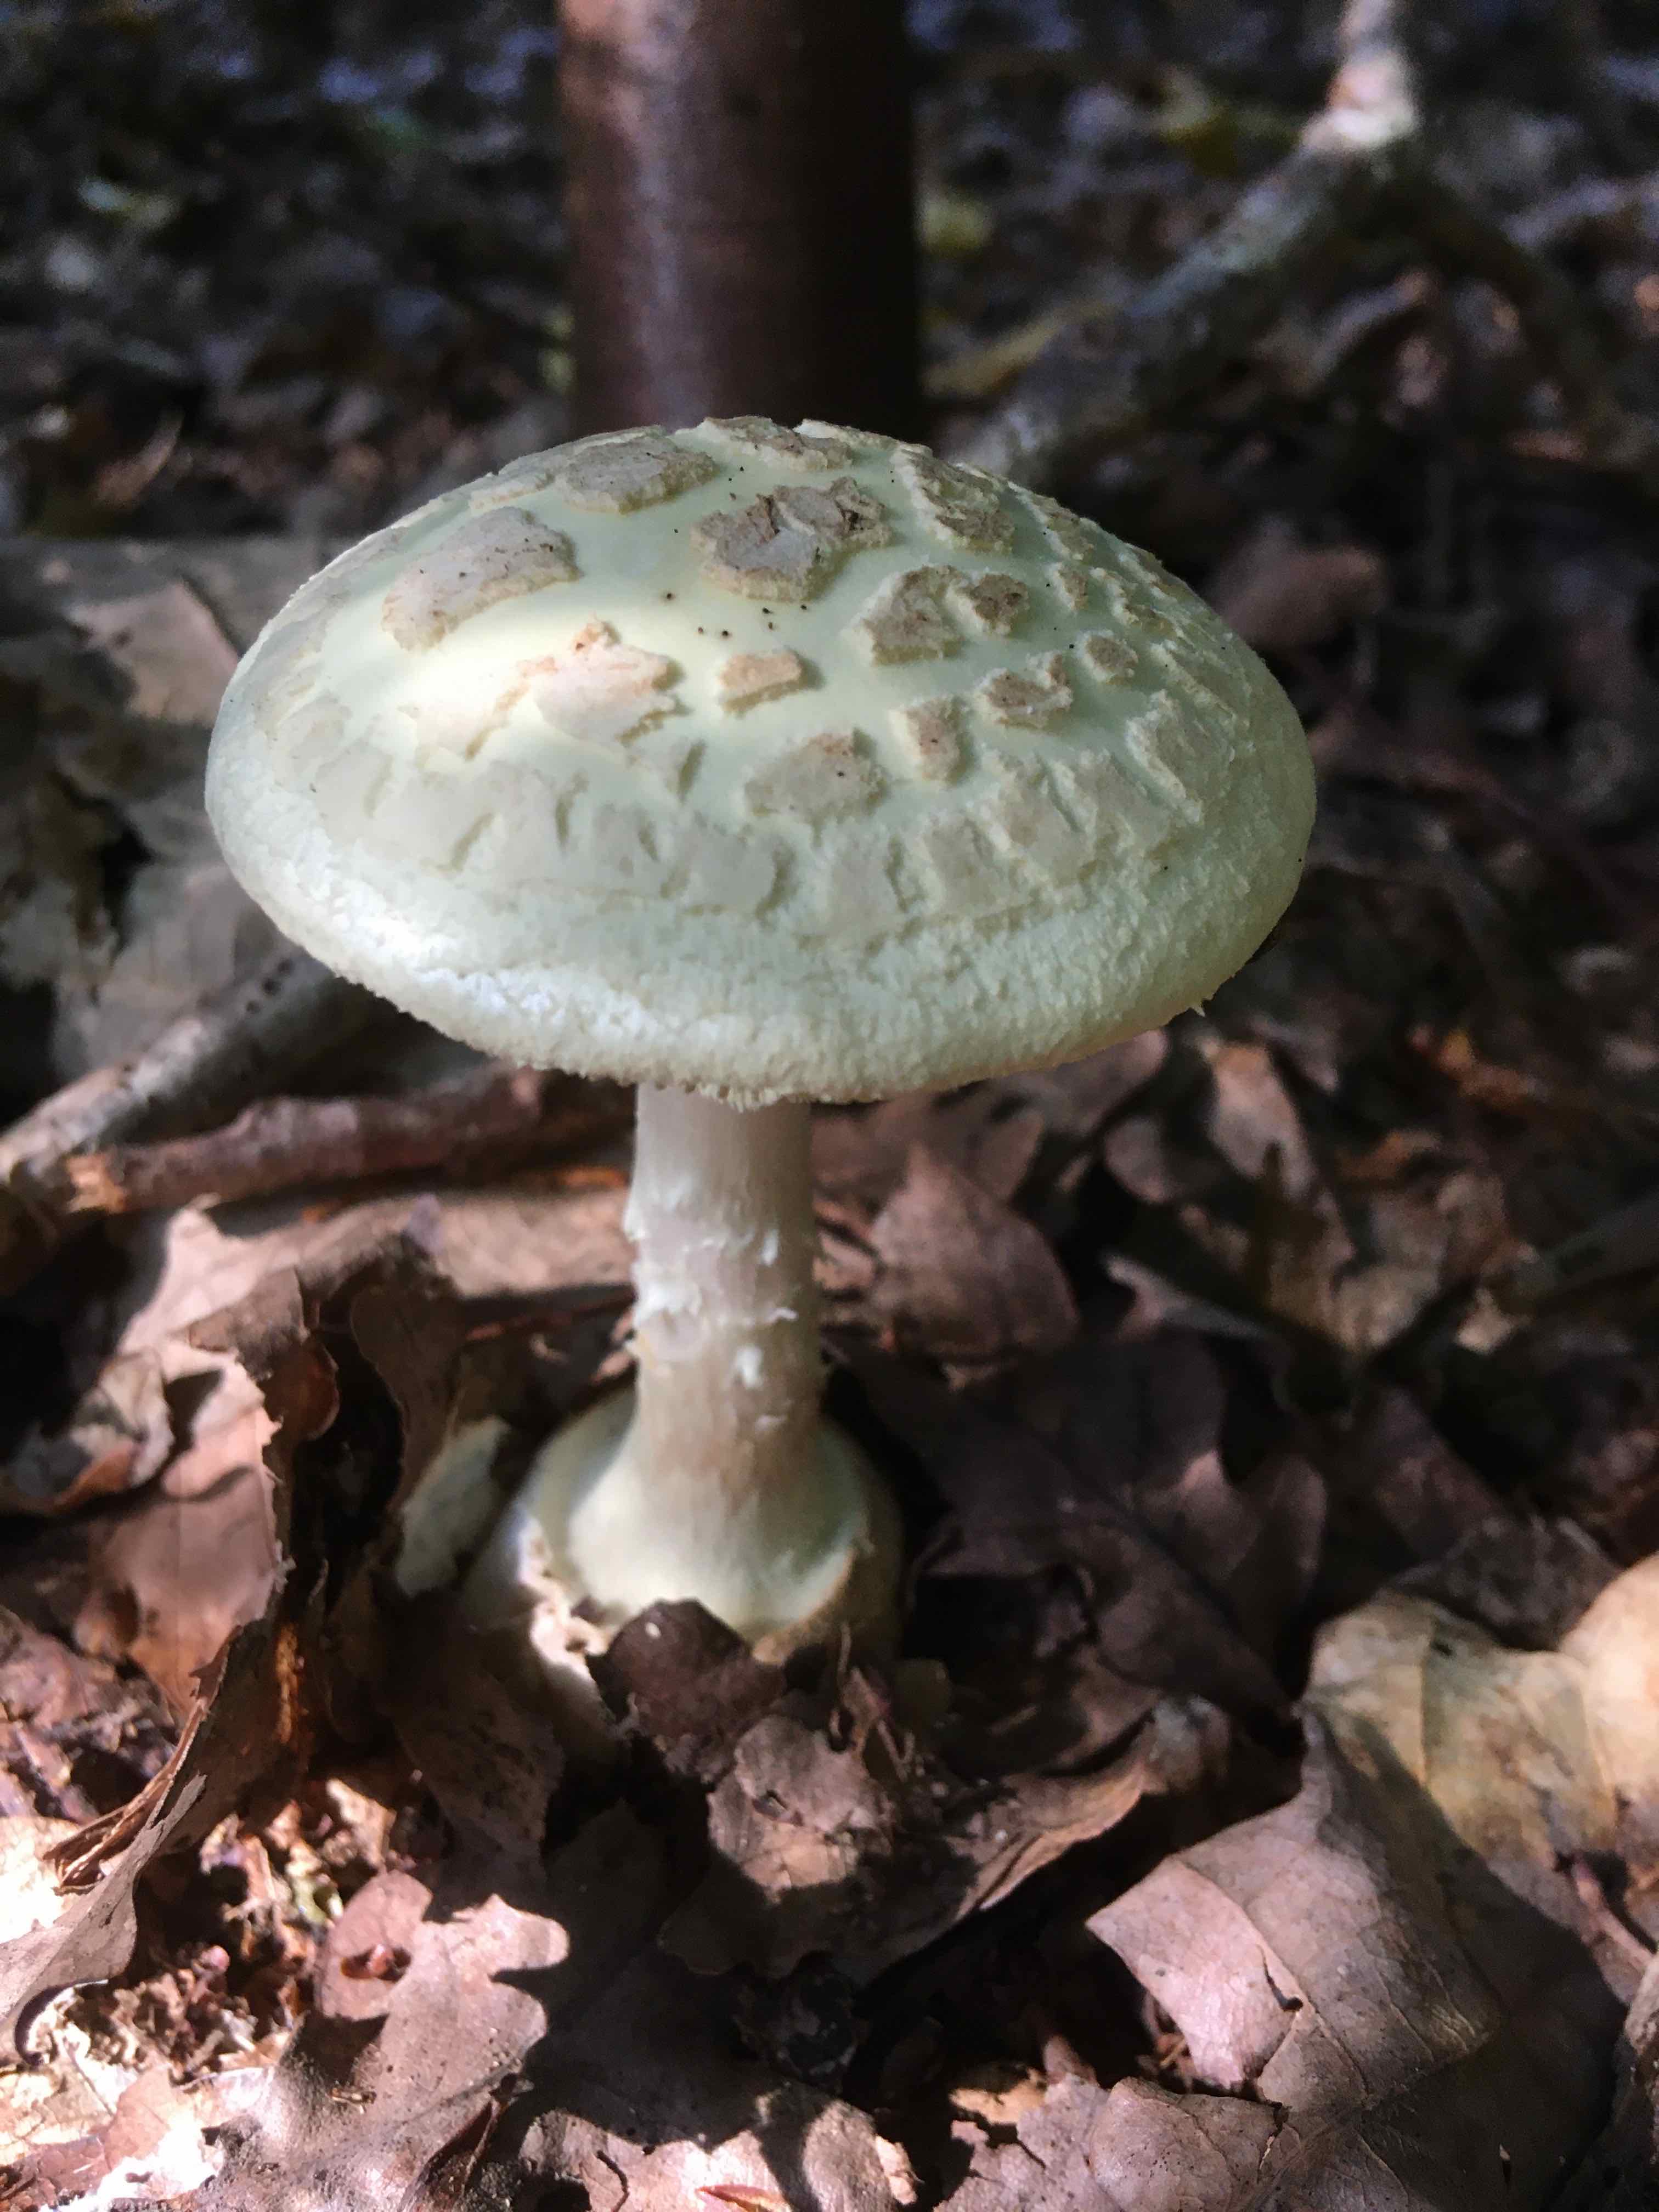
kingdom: Fungi
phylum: Basidiomycota
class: Agaricomycetes
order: Agaricales
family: Amanitaceae
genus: Amanita
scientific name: Amanita citrina
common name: kugleknoldet fluesvamp
